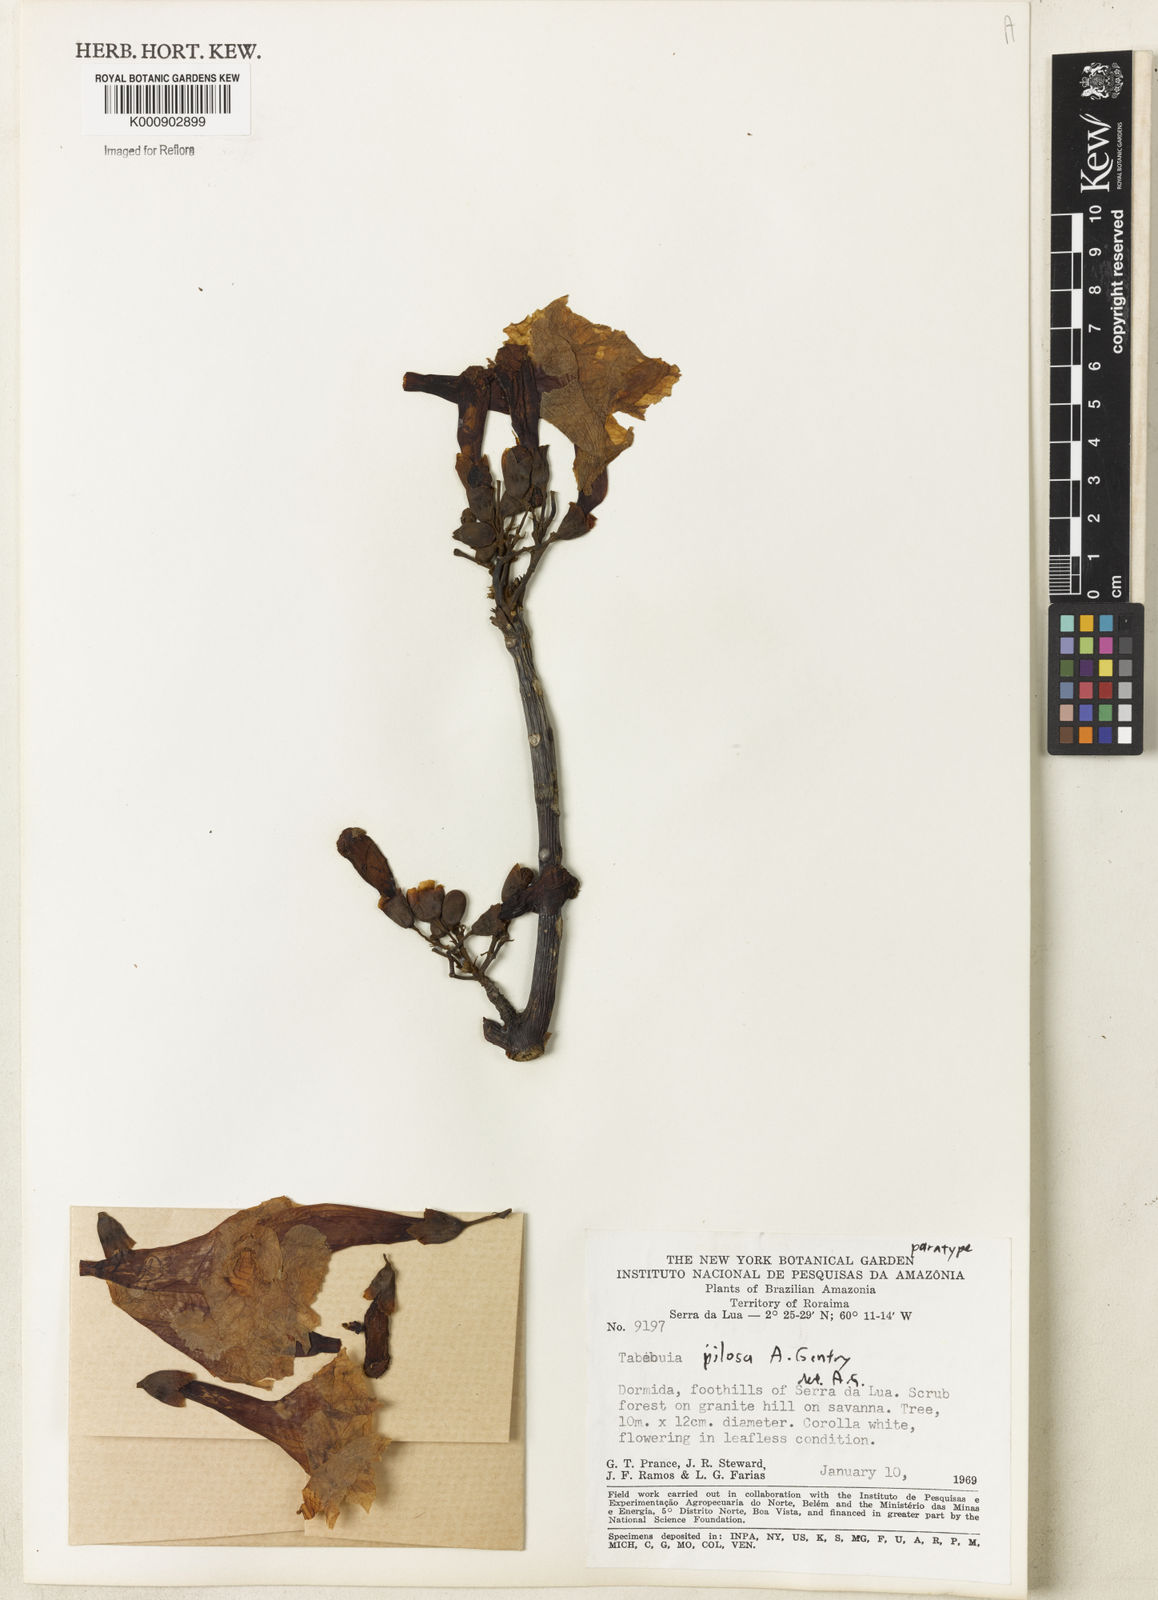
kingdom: Plantae
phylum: Tracheophyta
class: Magnoliopsida
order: Lamiales
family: Bignoniaceae
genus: Tabebuia
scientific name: Tabebuia pilosa
